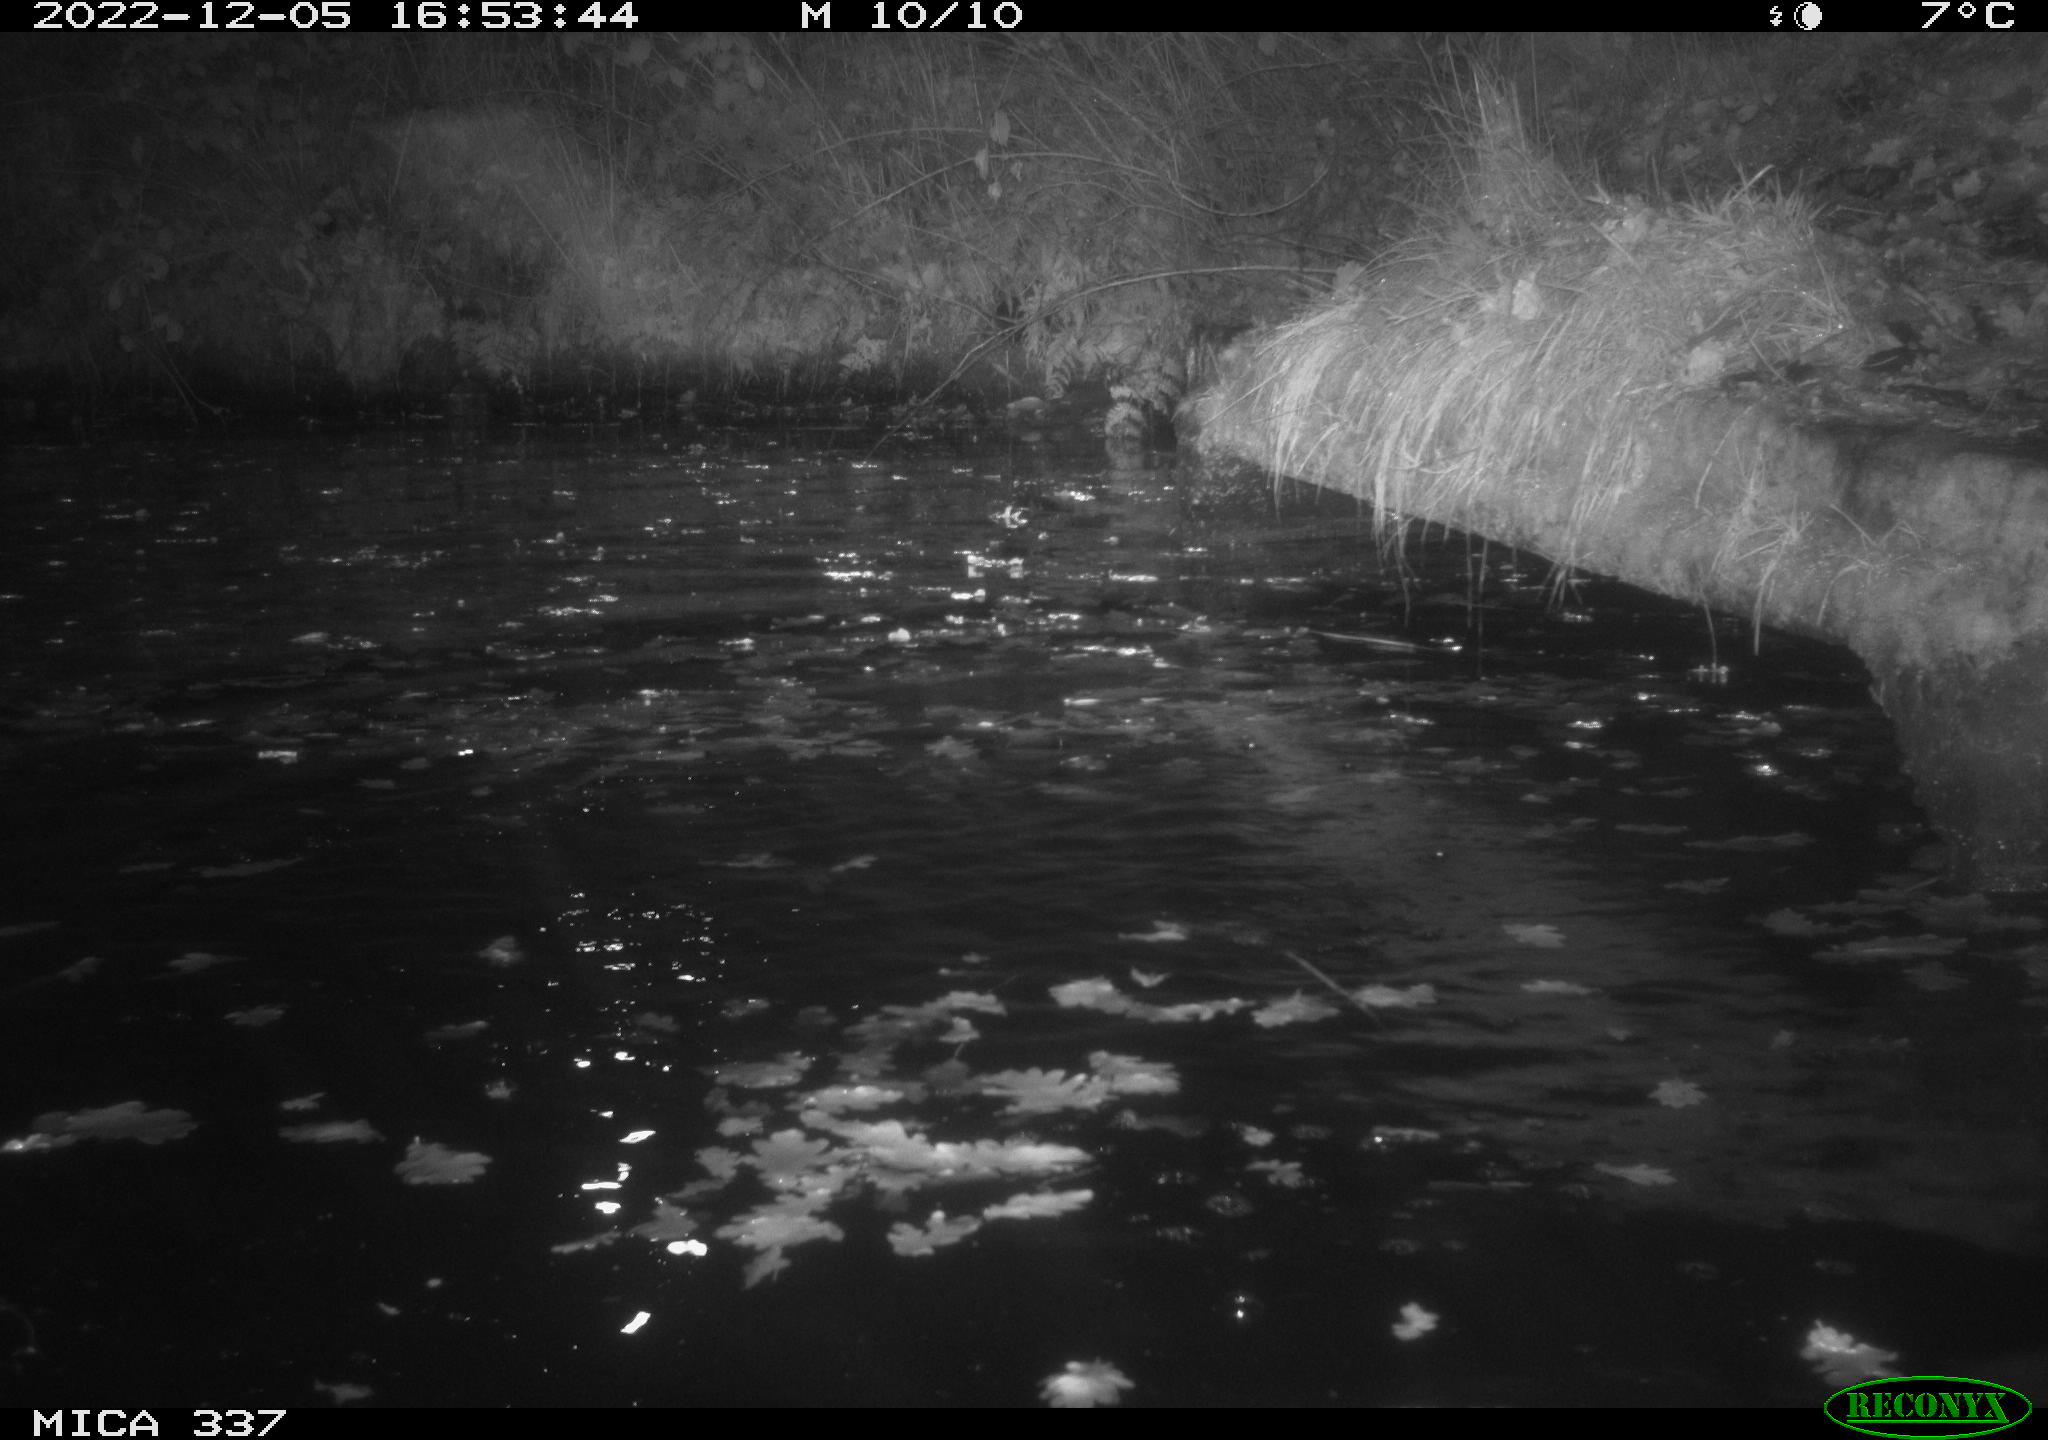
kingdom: Animalia
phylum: Chordata
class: Aves
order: Anseriformes
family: Anatidae
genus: Anas
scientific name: Anas platyrhynchos
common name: Mallard
